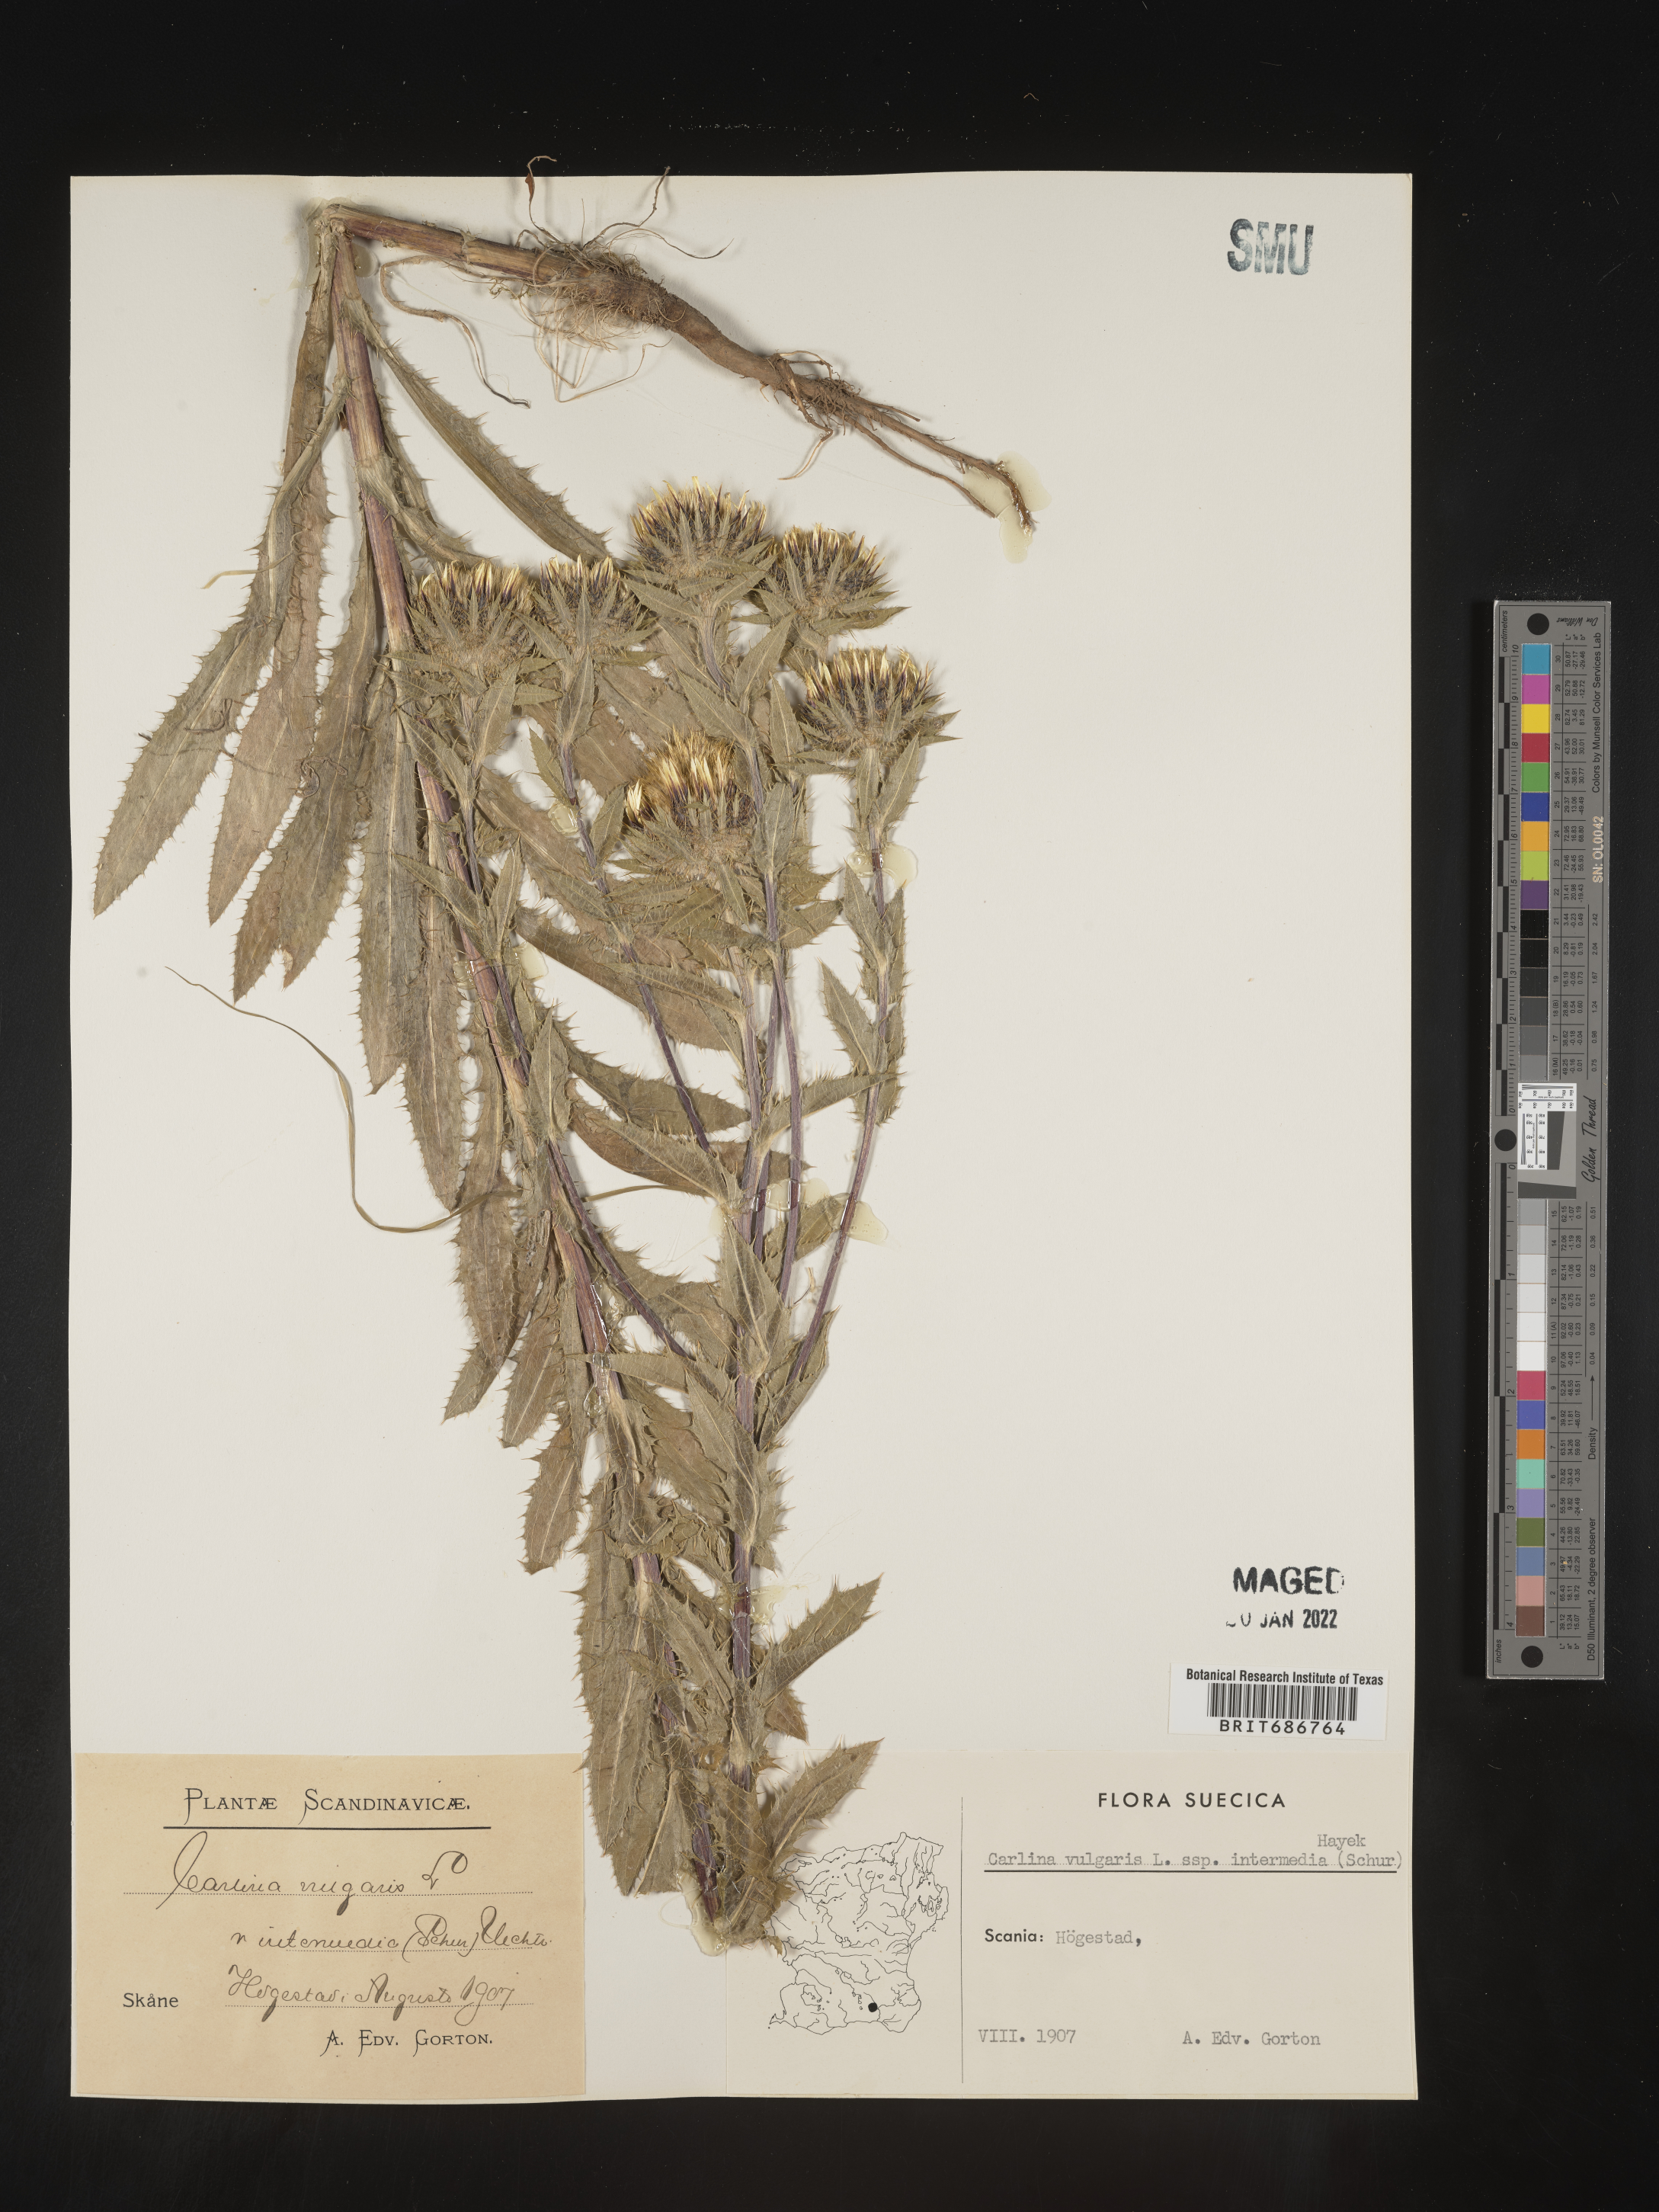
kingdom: Plantae
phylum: Tracheophyta
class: Magnoliopsida
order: Asterales
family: Asteraceae
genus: Carlina
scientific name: Carlina
